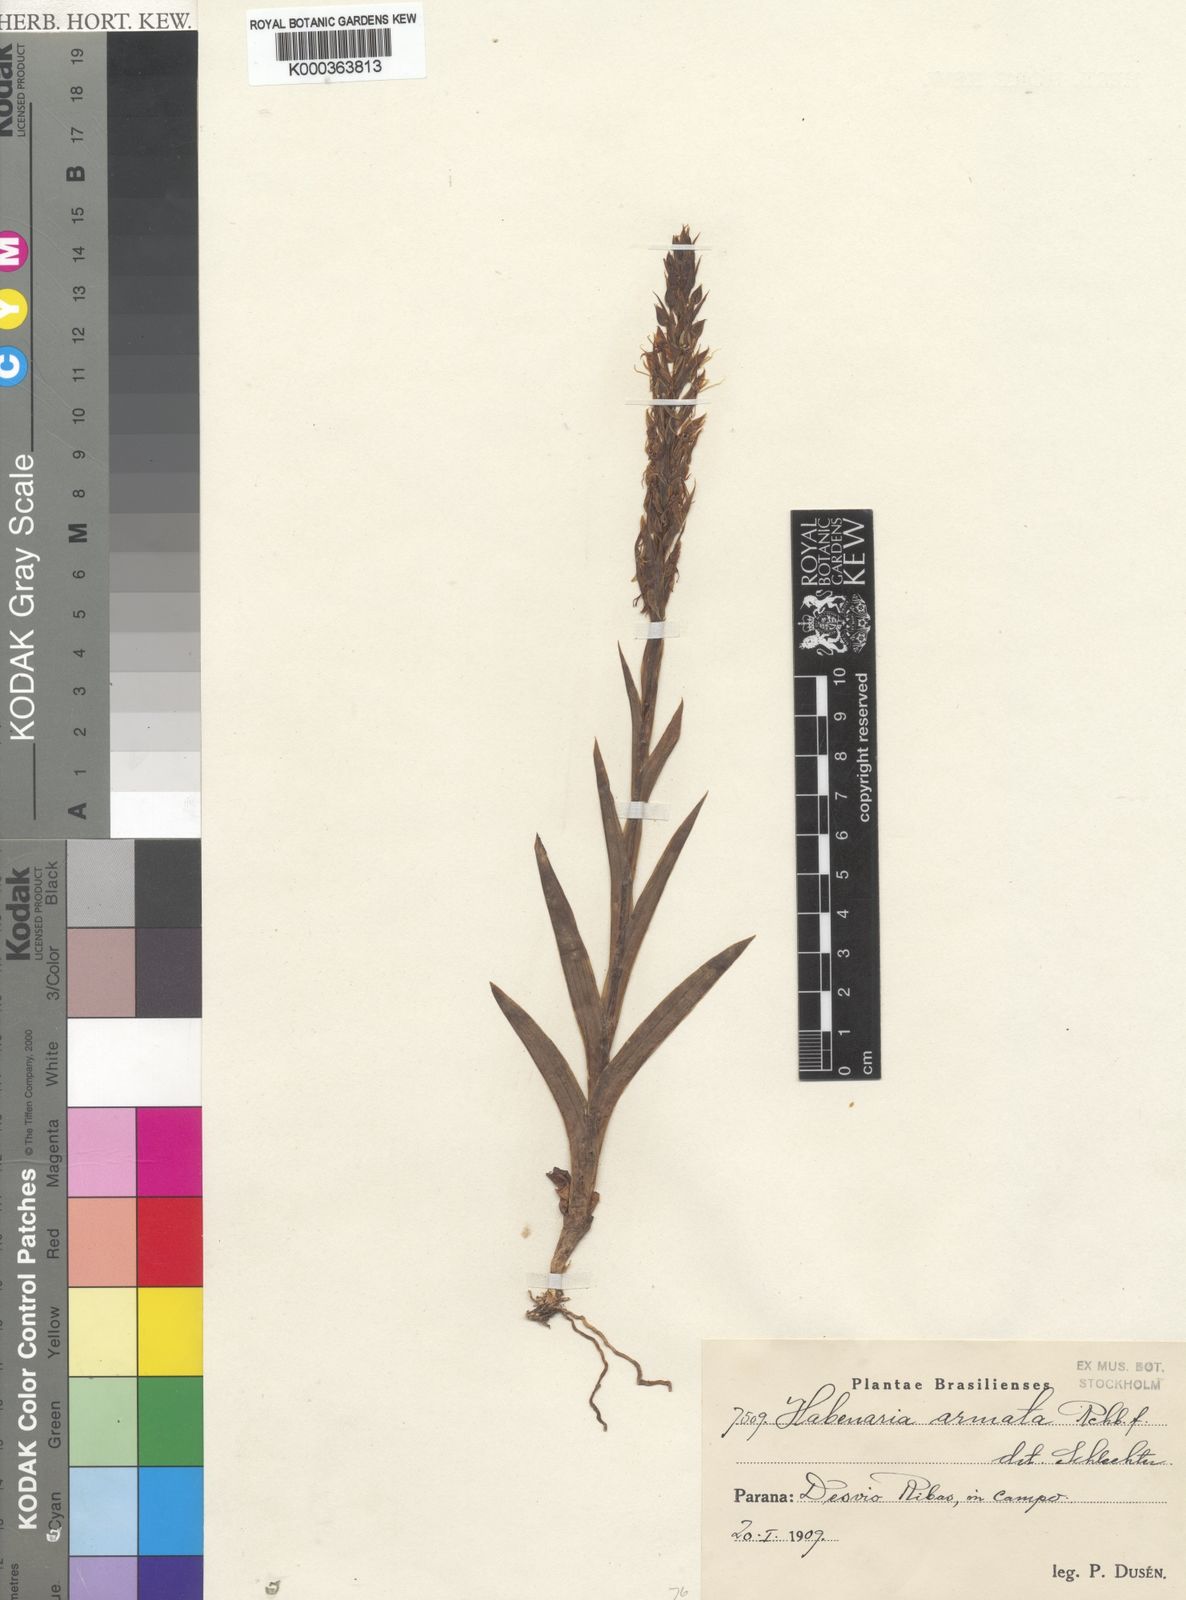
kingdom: Plantae
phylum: Tracheophyta
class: Liliopsida
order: Asparagales
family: Orchidaceae
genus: Habenaria
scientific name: Habenaria armata
